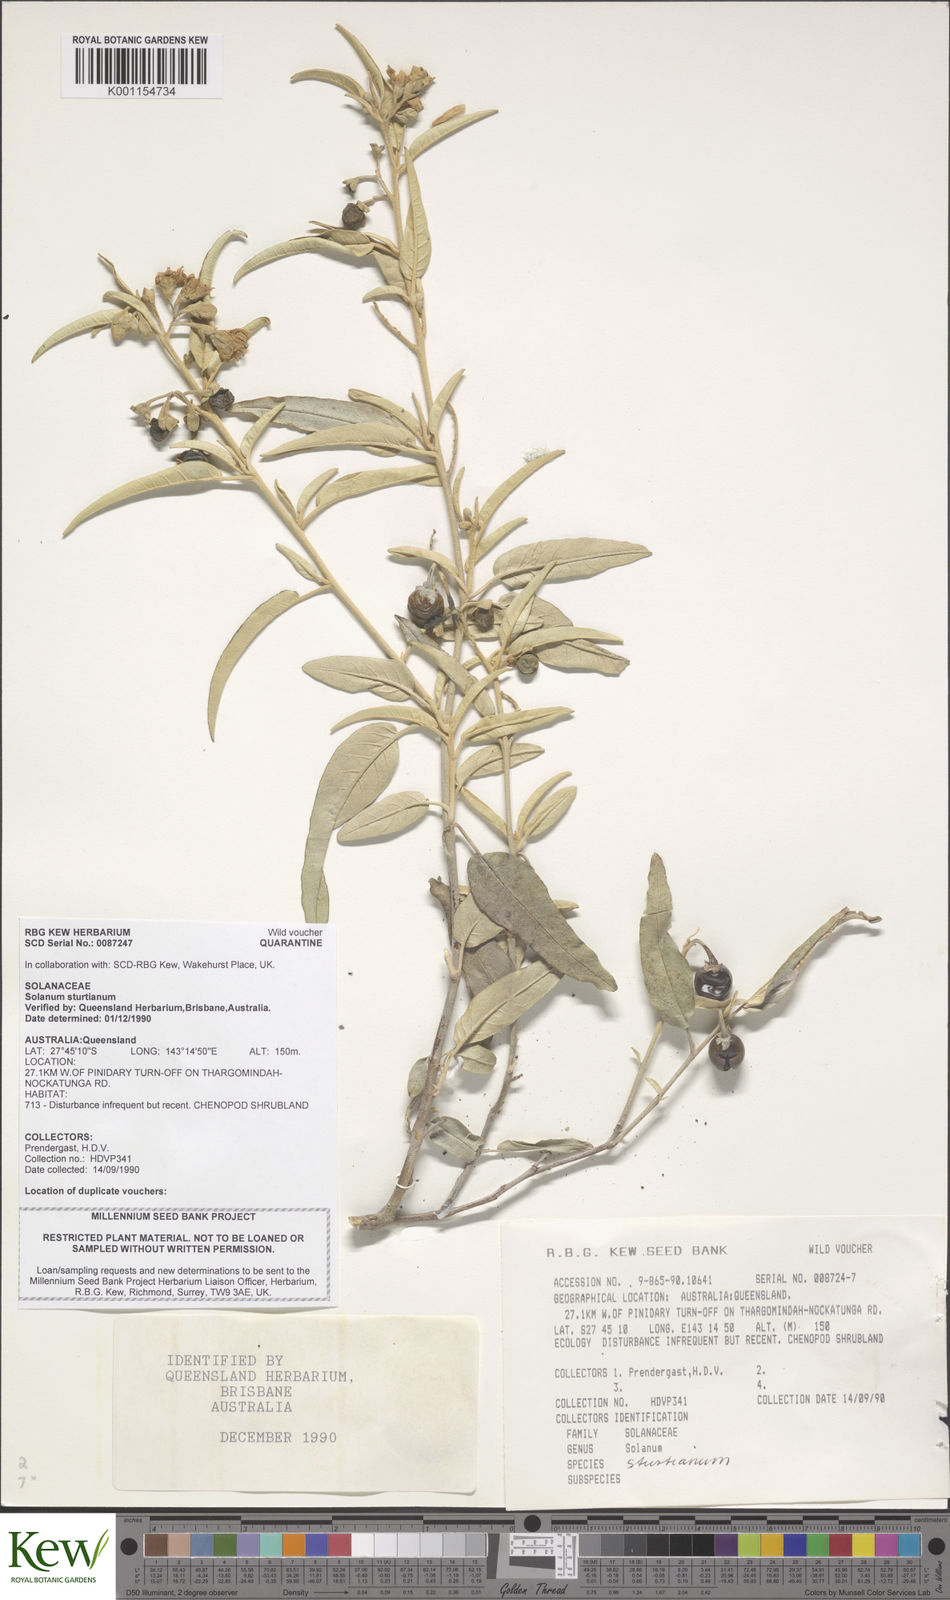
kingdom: Plantae
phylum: Tracheophyta
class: Magnoliopsida
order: Solanales
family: Solanaceae
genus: Solanum
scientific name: Solanum sturtianum
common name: Thargomindah nightshade
